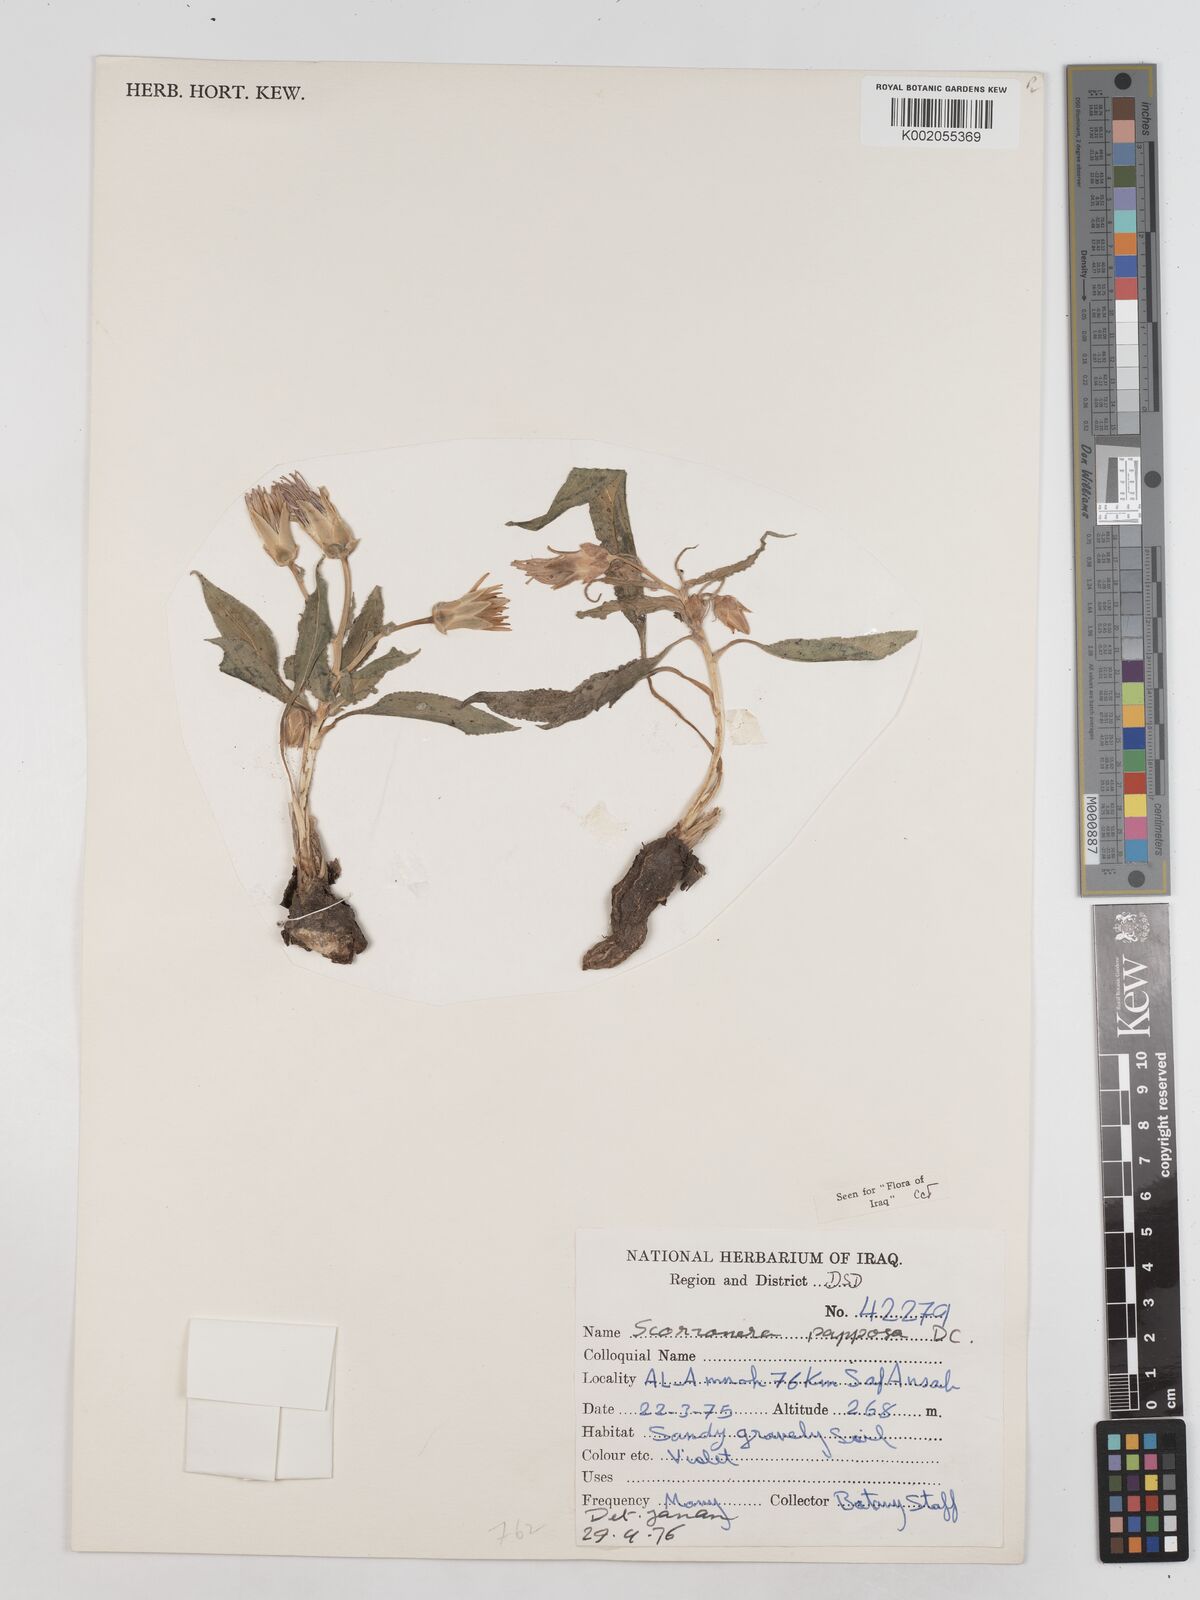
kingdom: Plantae
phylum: Tracheophyta
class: Magnoliopsida
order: Asterales
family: Asteraceae
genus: Pseudopodospermum
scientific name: Pseudopodospermum papposum
